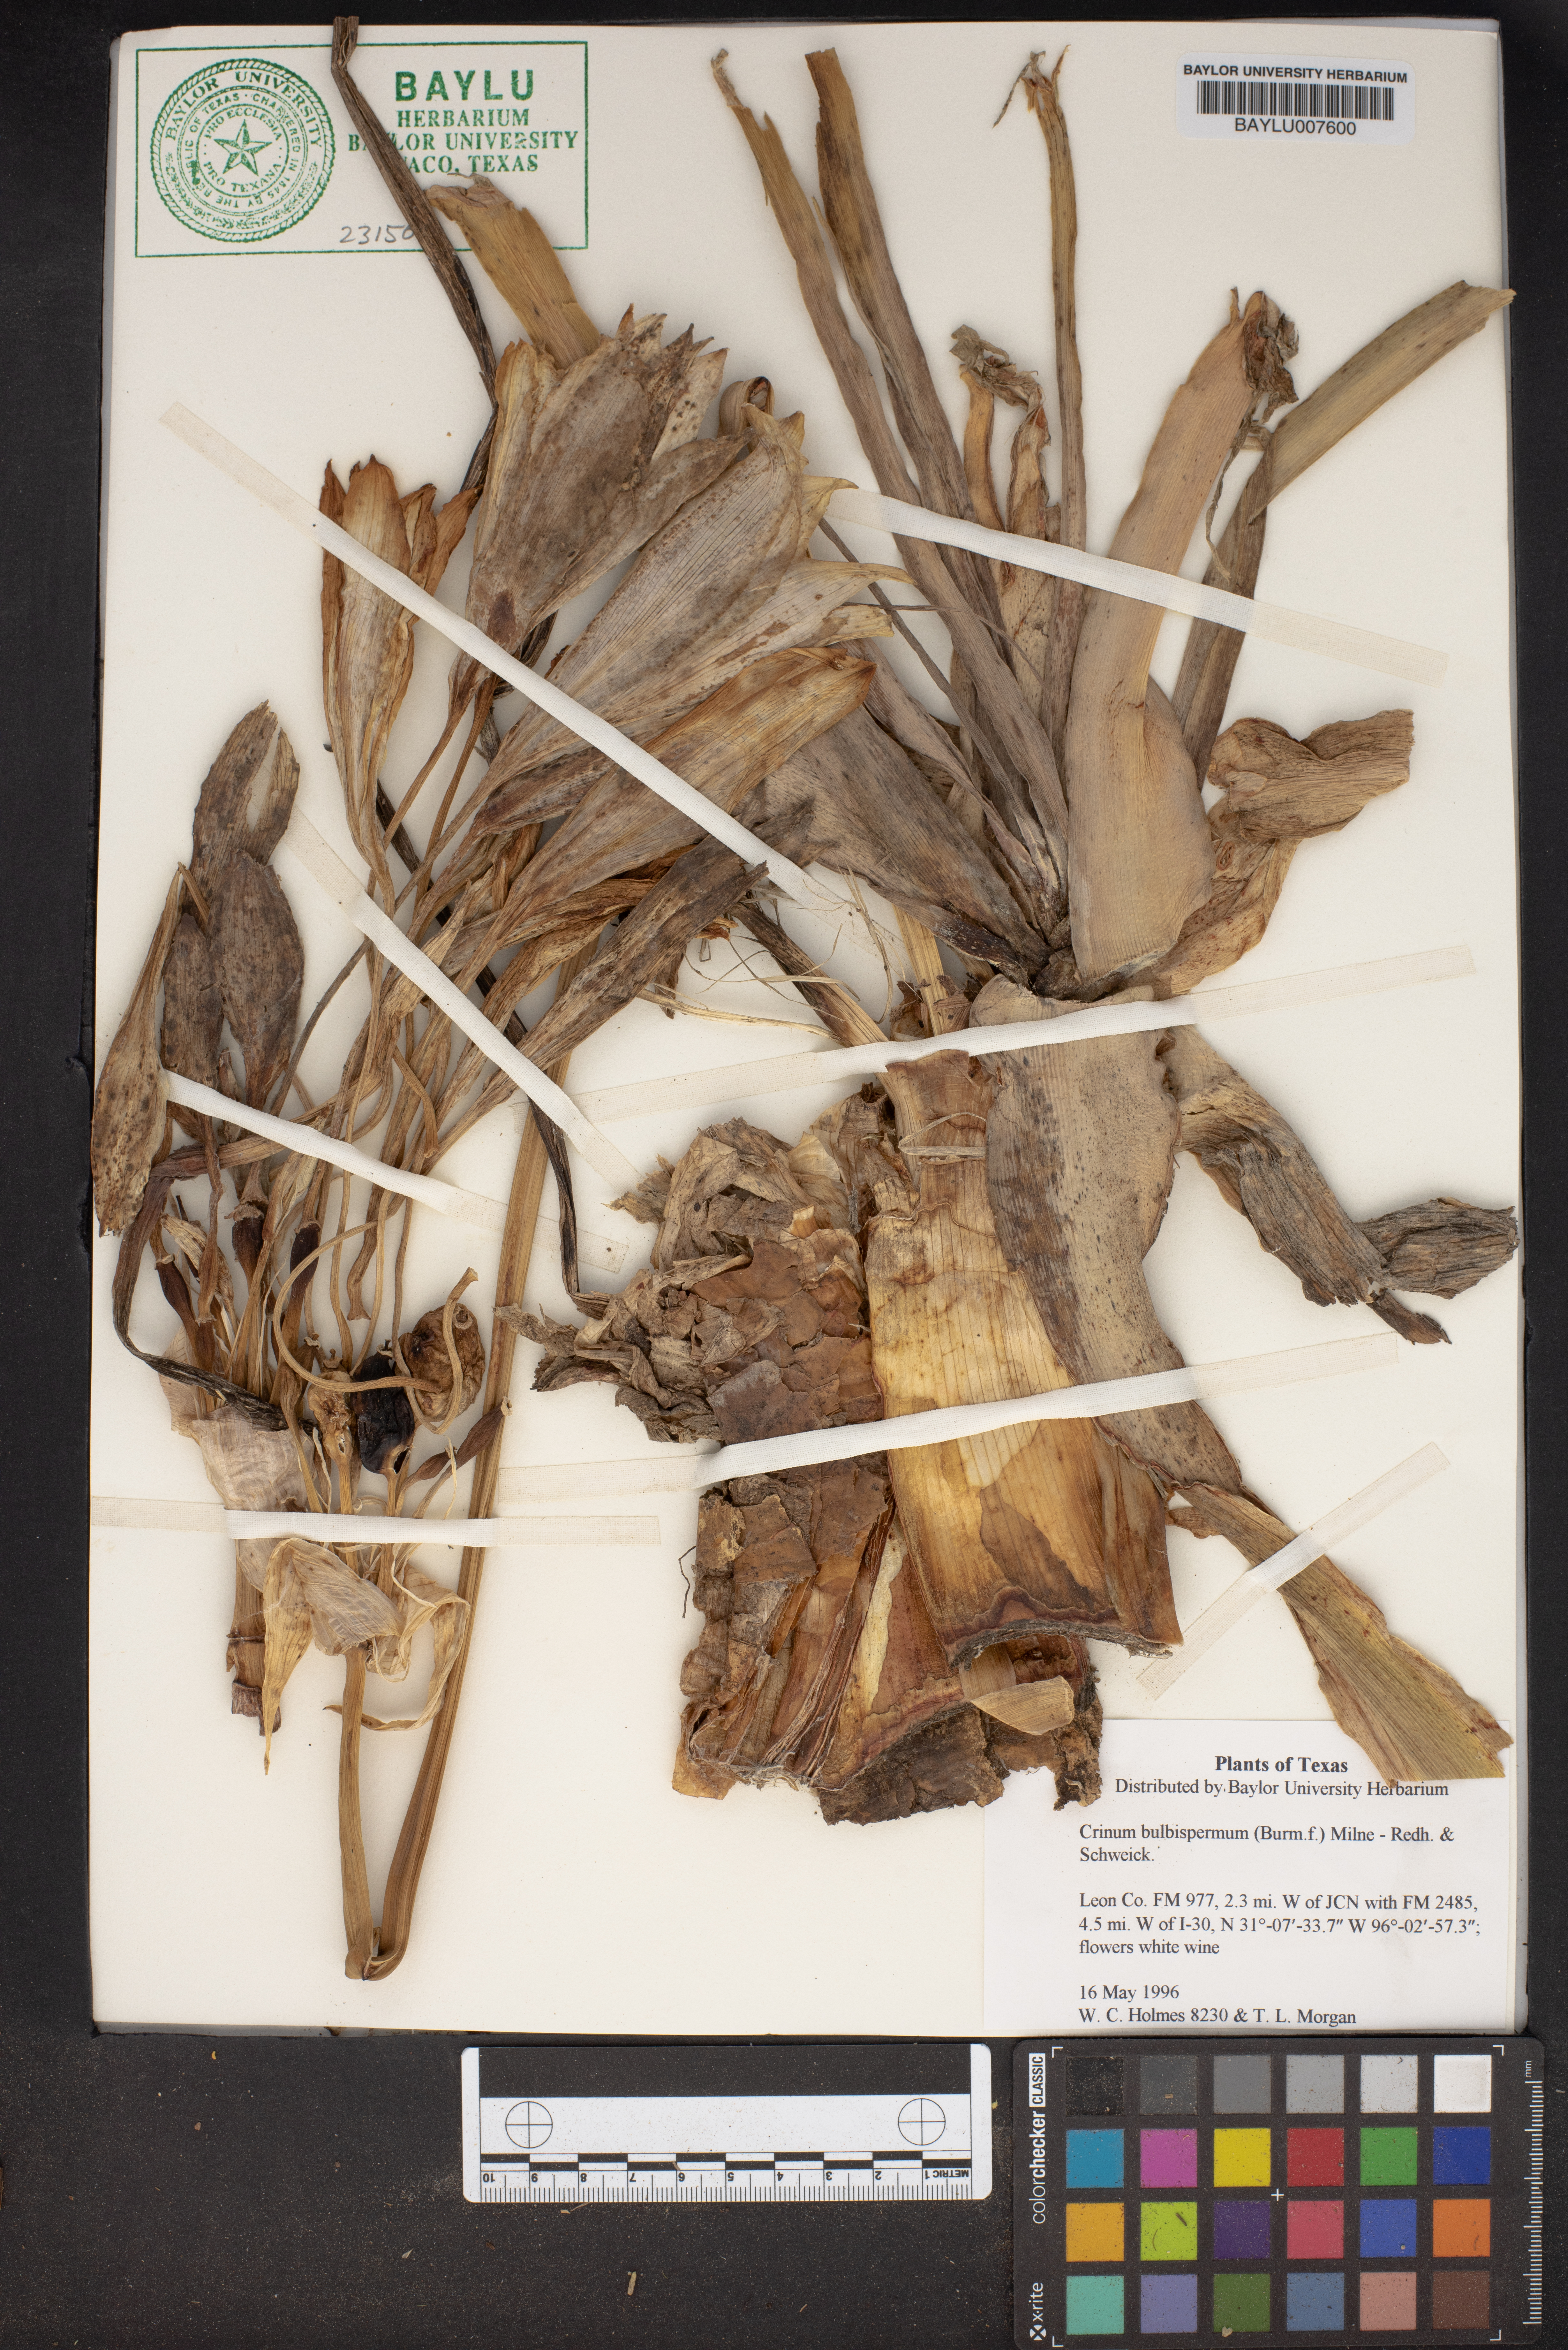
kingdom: Plantae
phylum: Tracheophyta
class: Liliopsida
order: Asparagales
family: Amaryllidaceae
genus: Crinum
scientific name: Crinum bulbispermum
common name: Hardy swamplily
